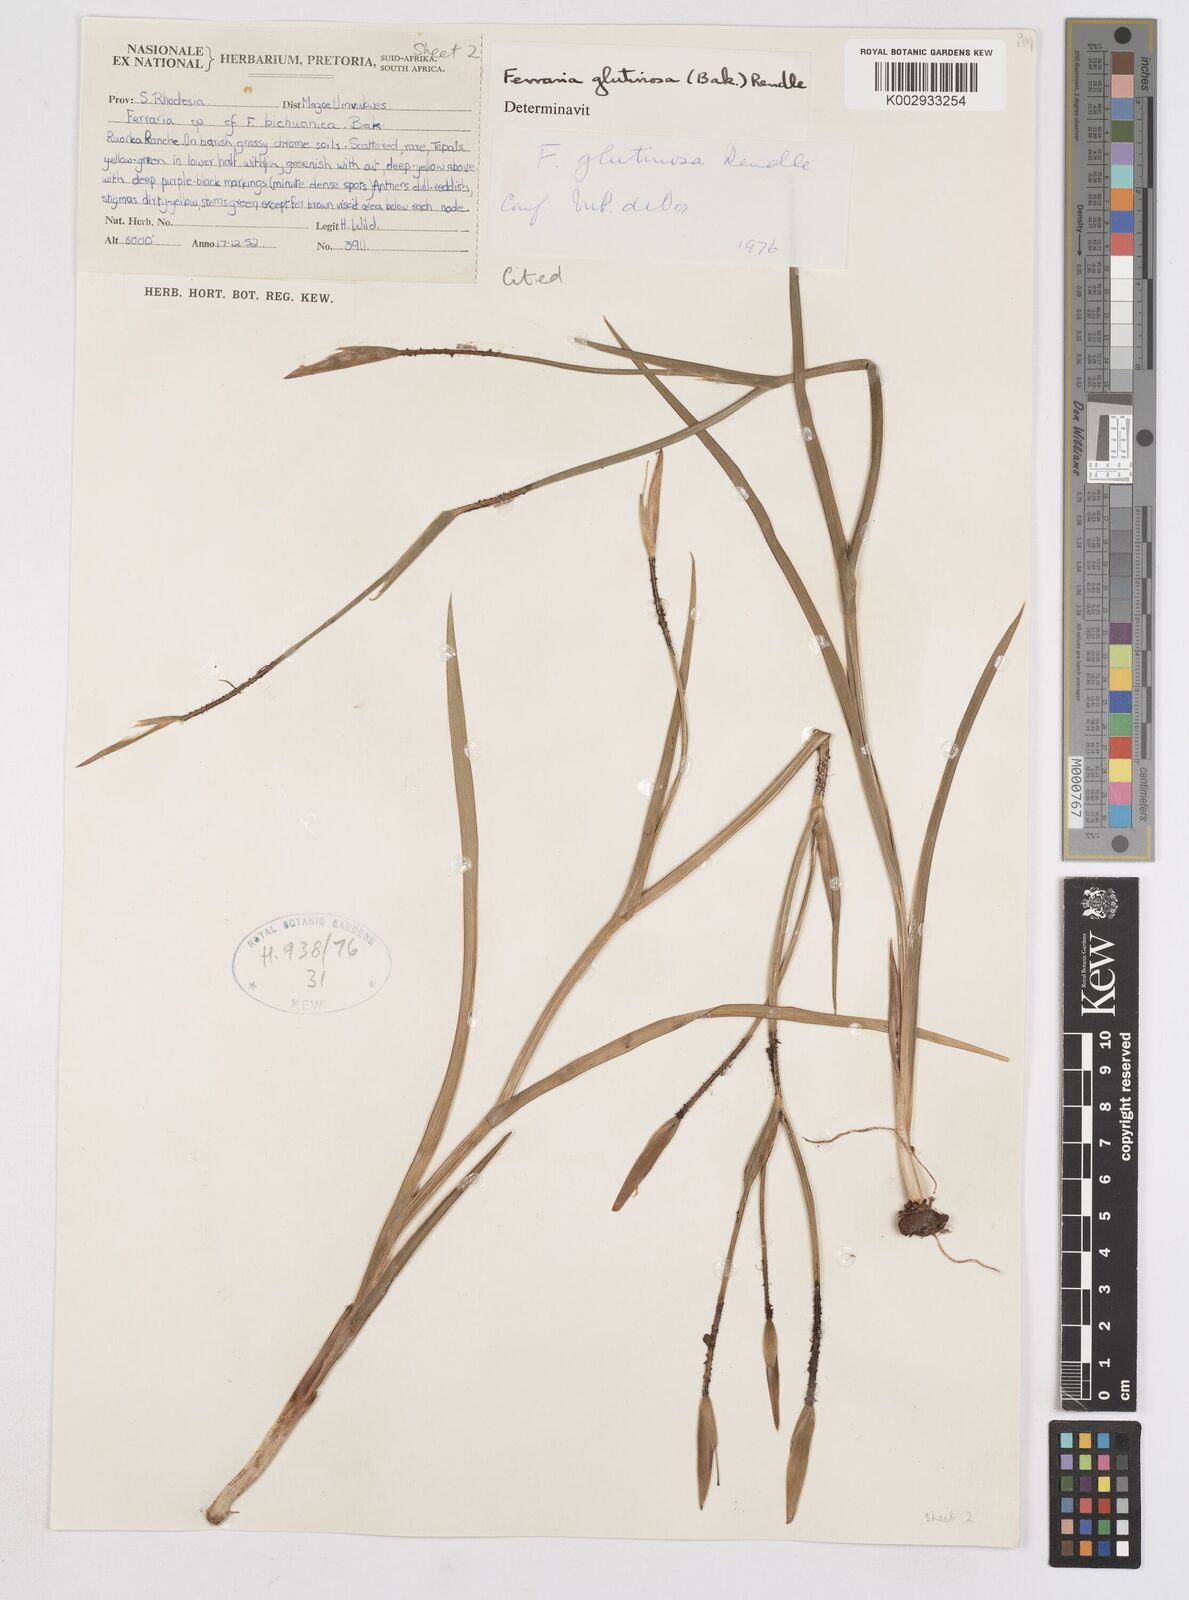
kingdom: Plantae
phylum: Tracheophyta
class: Liliopsida
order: Asparagales
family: Iridaceae
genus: Ferraria
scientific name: Ferraria glutinosa
